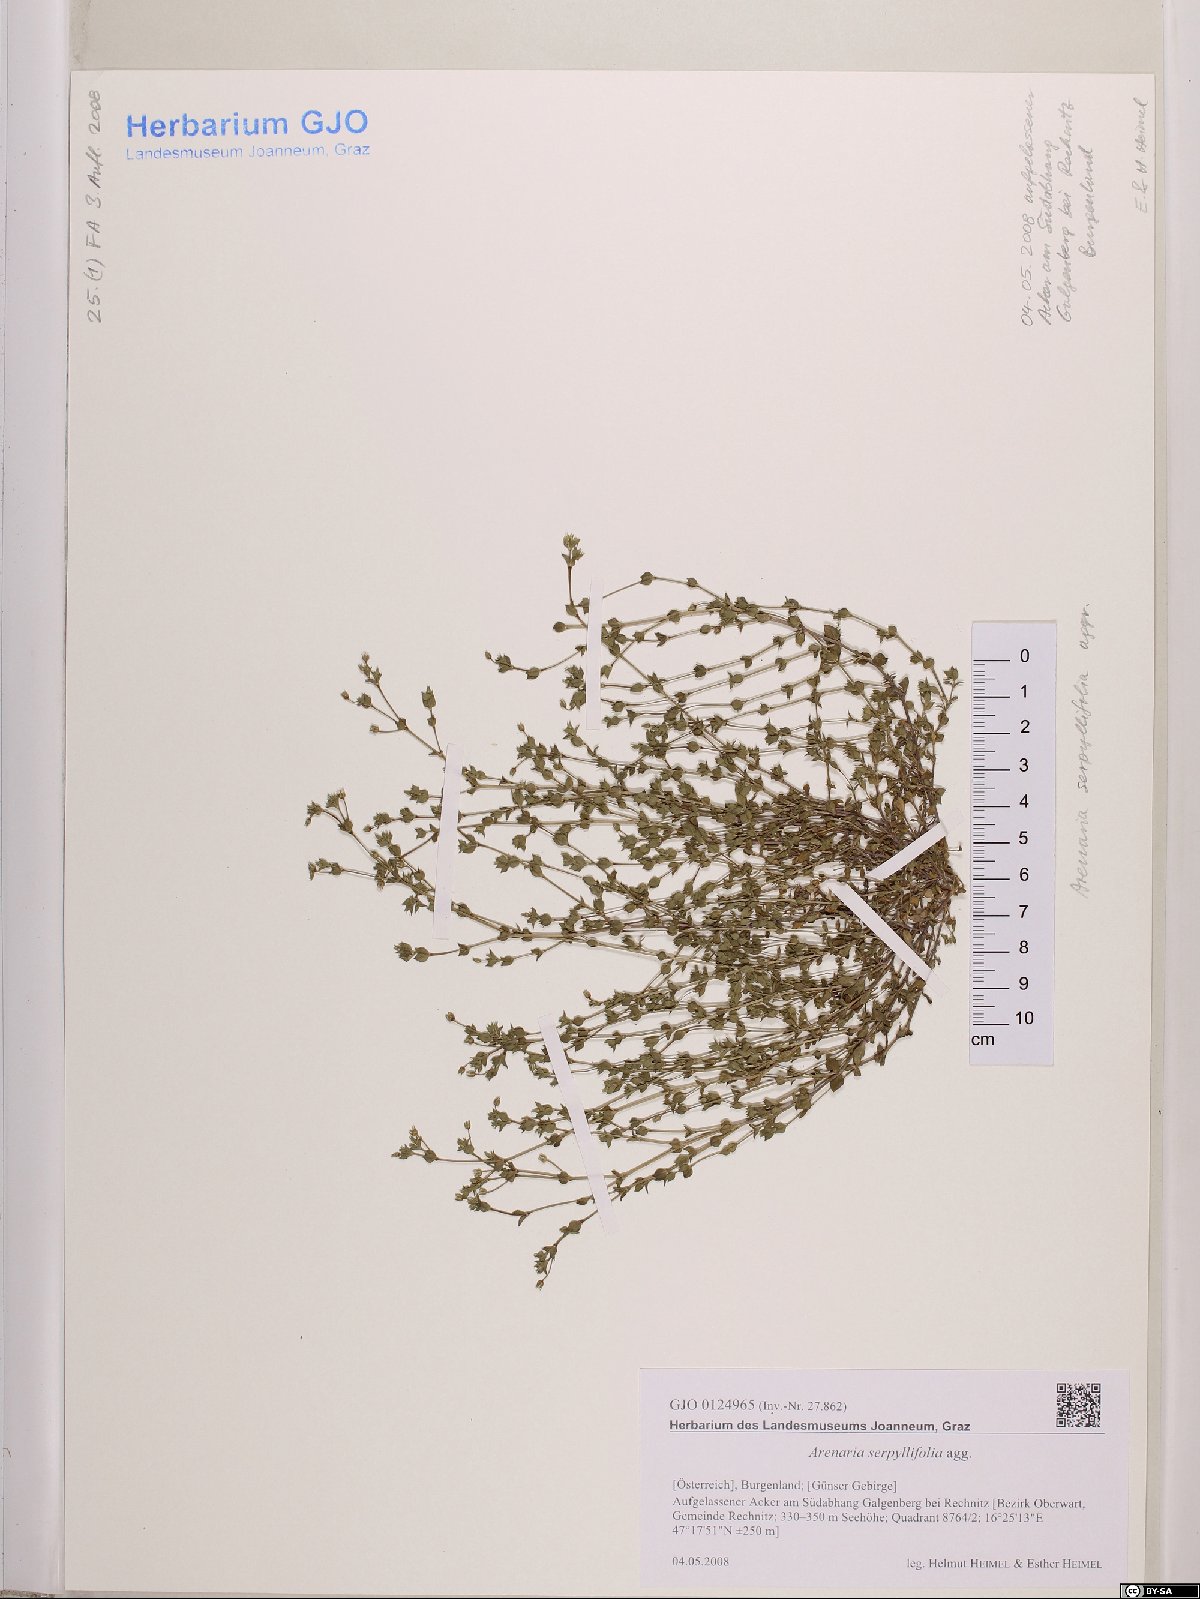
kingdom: Plantae
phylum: Tracheophyta
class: Magnoliopsida
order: Caryophyllales
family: Caryophyllaceae
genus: Arenaria
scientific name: Arenaria serpyllifolia
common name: Thyme-leaved sandwort
